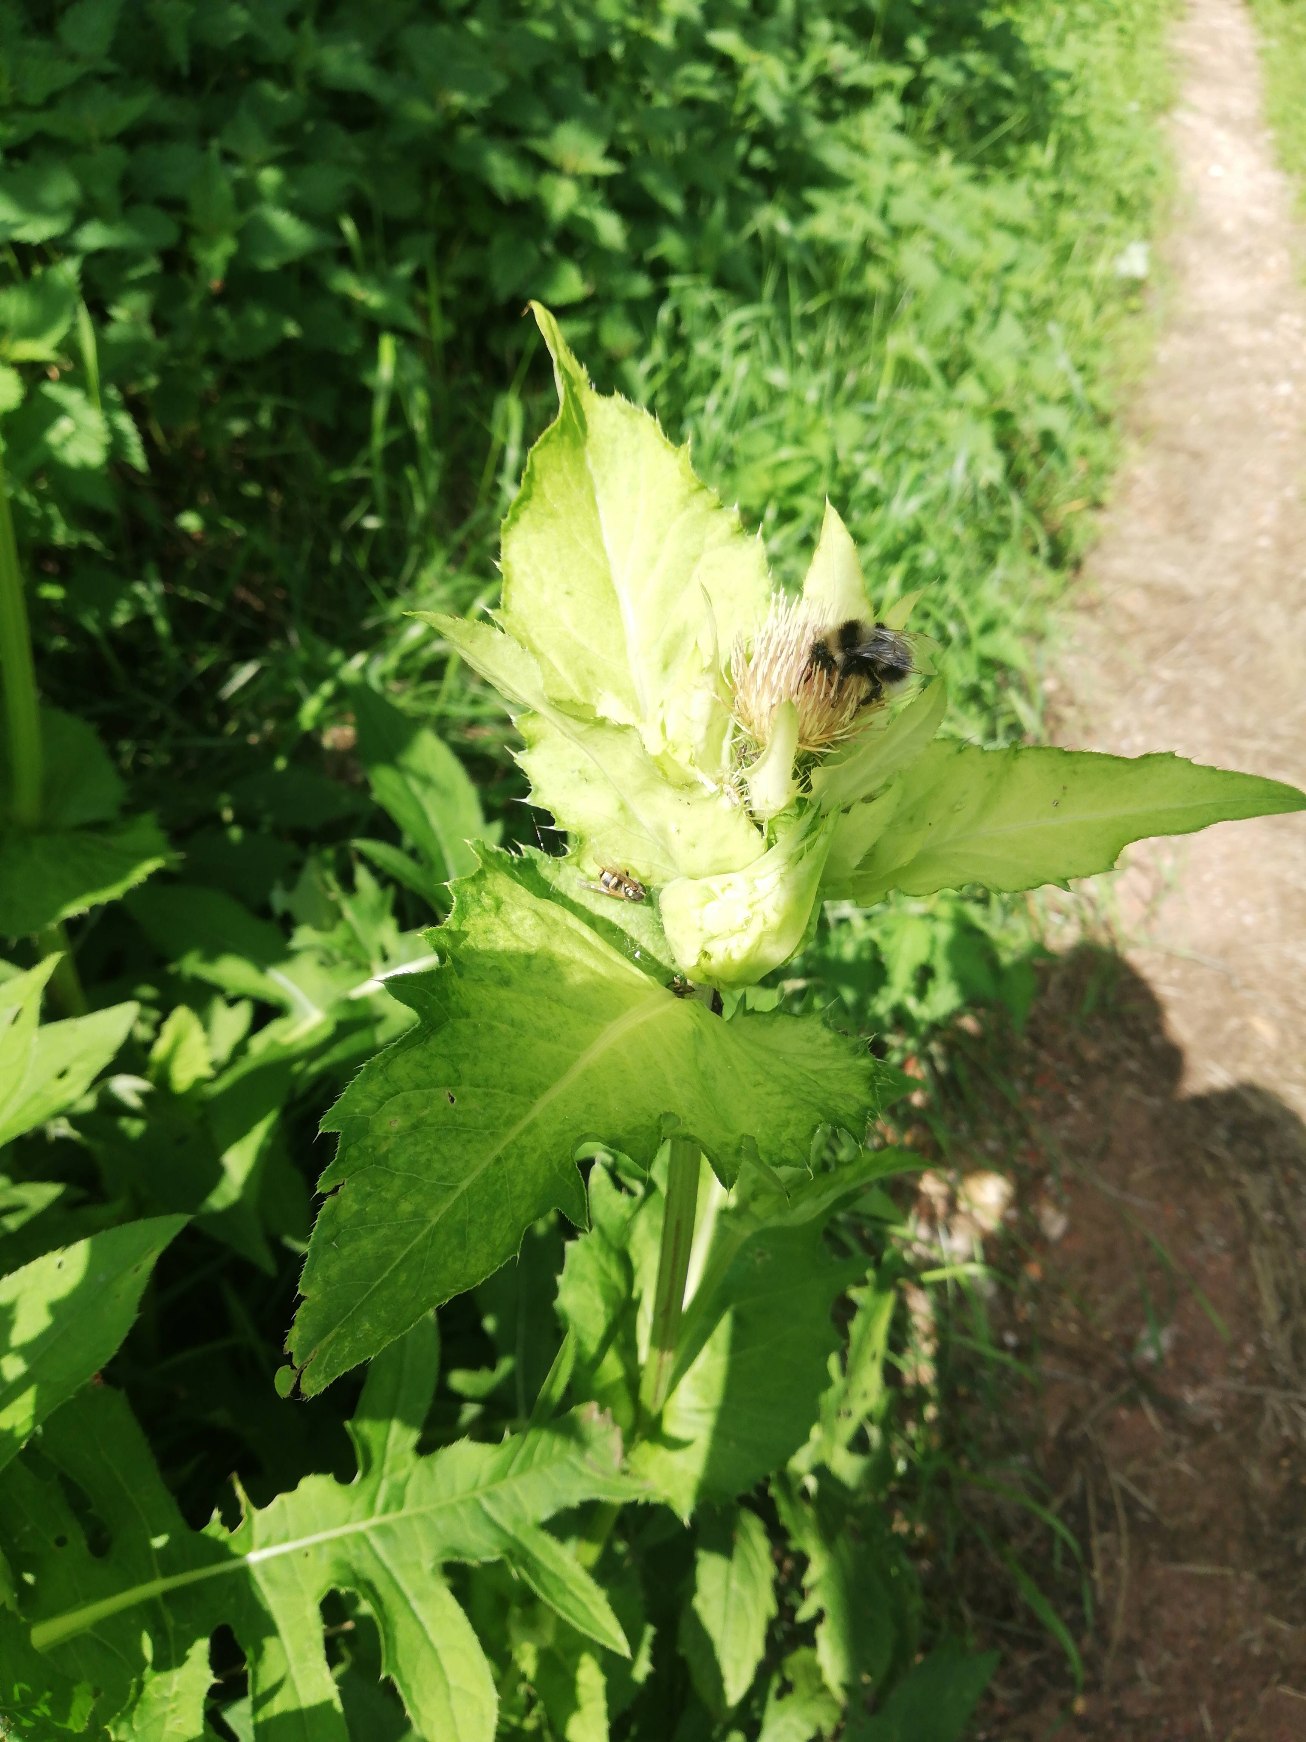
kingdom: Plantae
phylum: Tracheophyta
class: Magnoliopsida
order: Asterales
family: Asteraceae
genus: Cirsium
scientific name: Cirsium oleraceum
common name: Kål-tidsel
